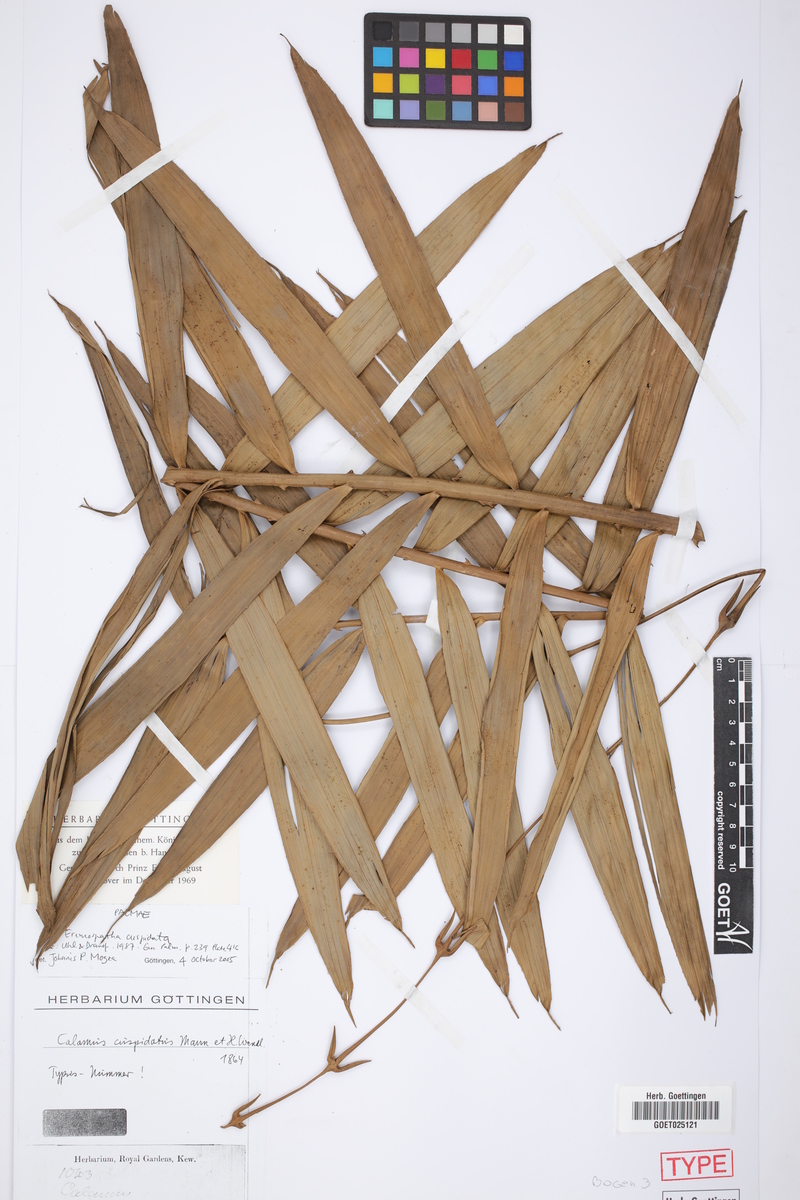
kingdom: Plantae
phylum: Tracheophyta
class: Liliopsida
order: Arecales
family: Arecaceae
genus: Eremospatha
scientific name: Eremospatha cuspidata
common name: Rattan
